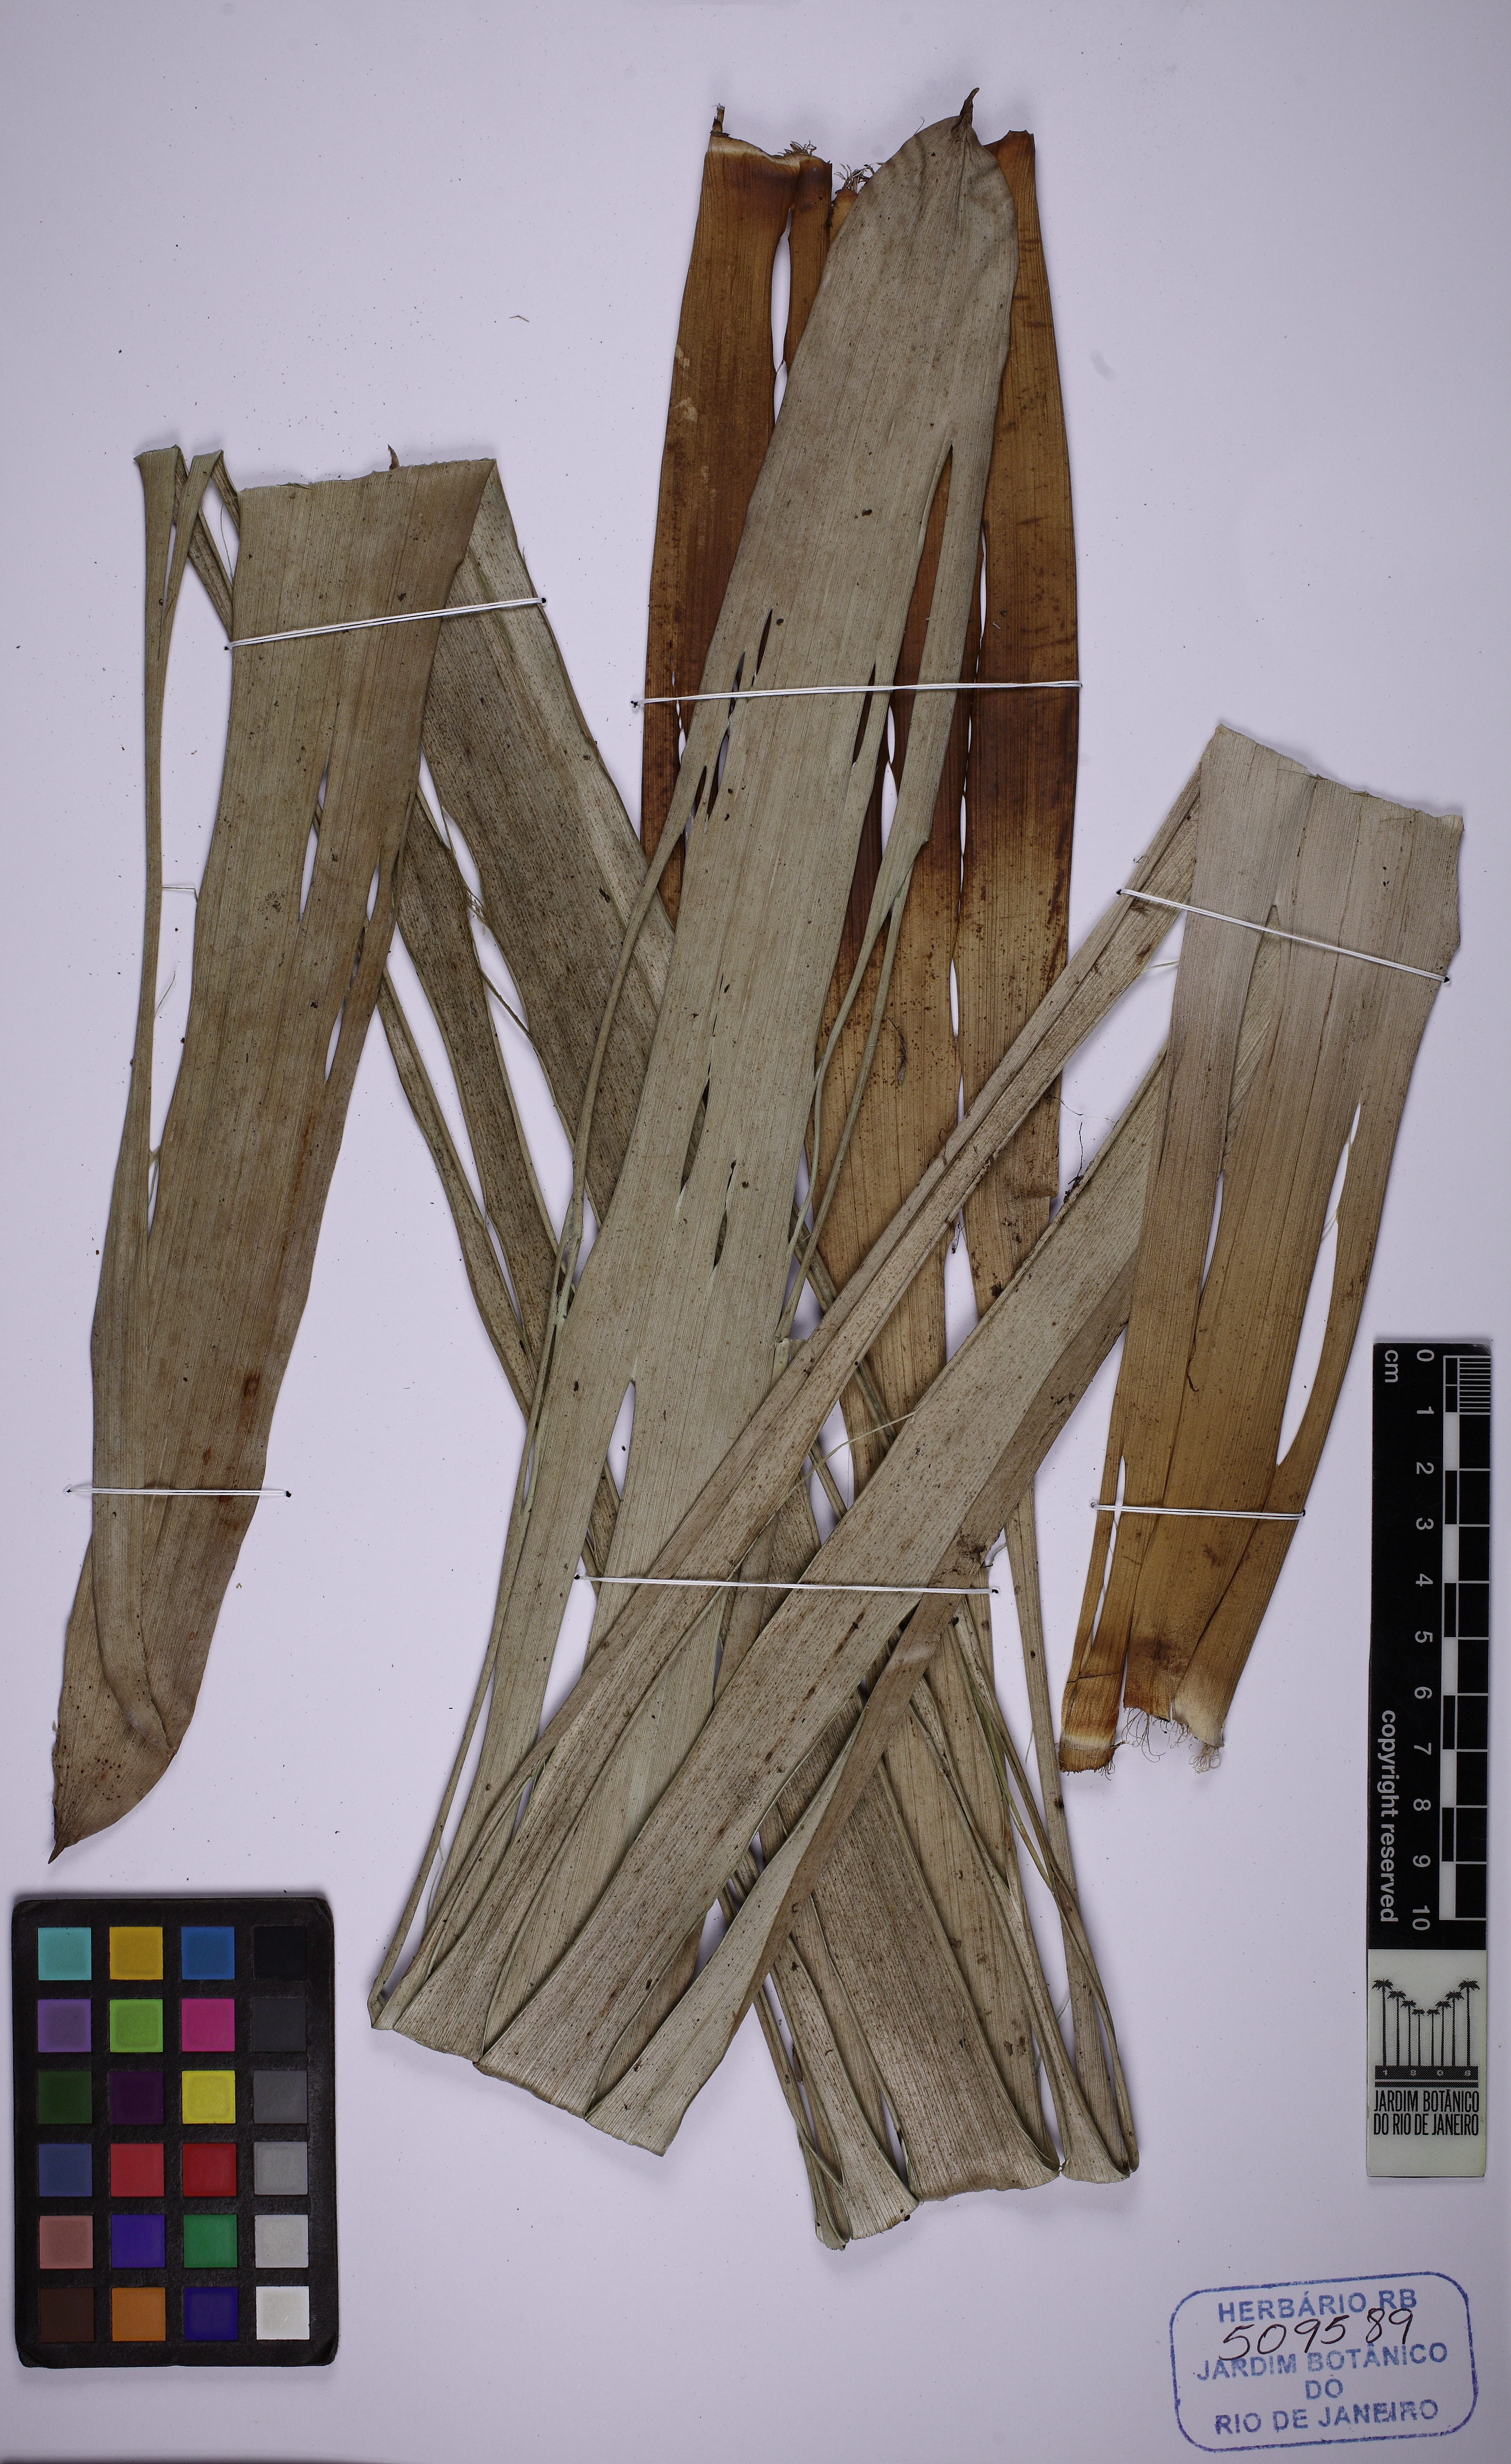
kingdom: Plantae
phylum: Tracheophyta
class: Liliopsida
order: Poales
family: Bromeliaceae
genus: Vriesea
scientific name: Vriesea bahiana
